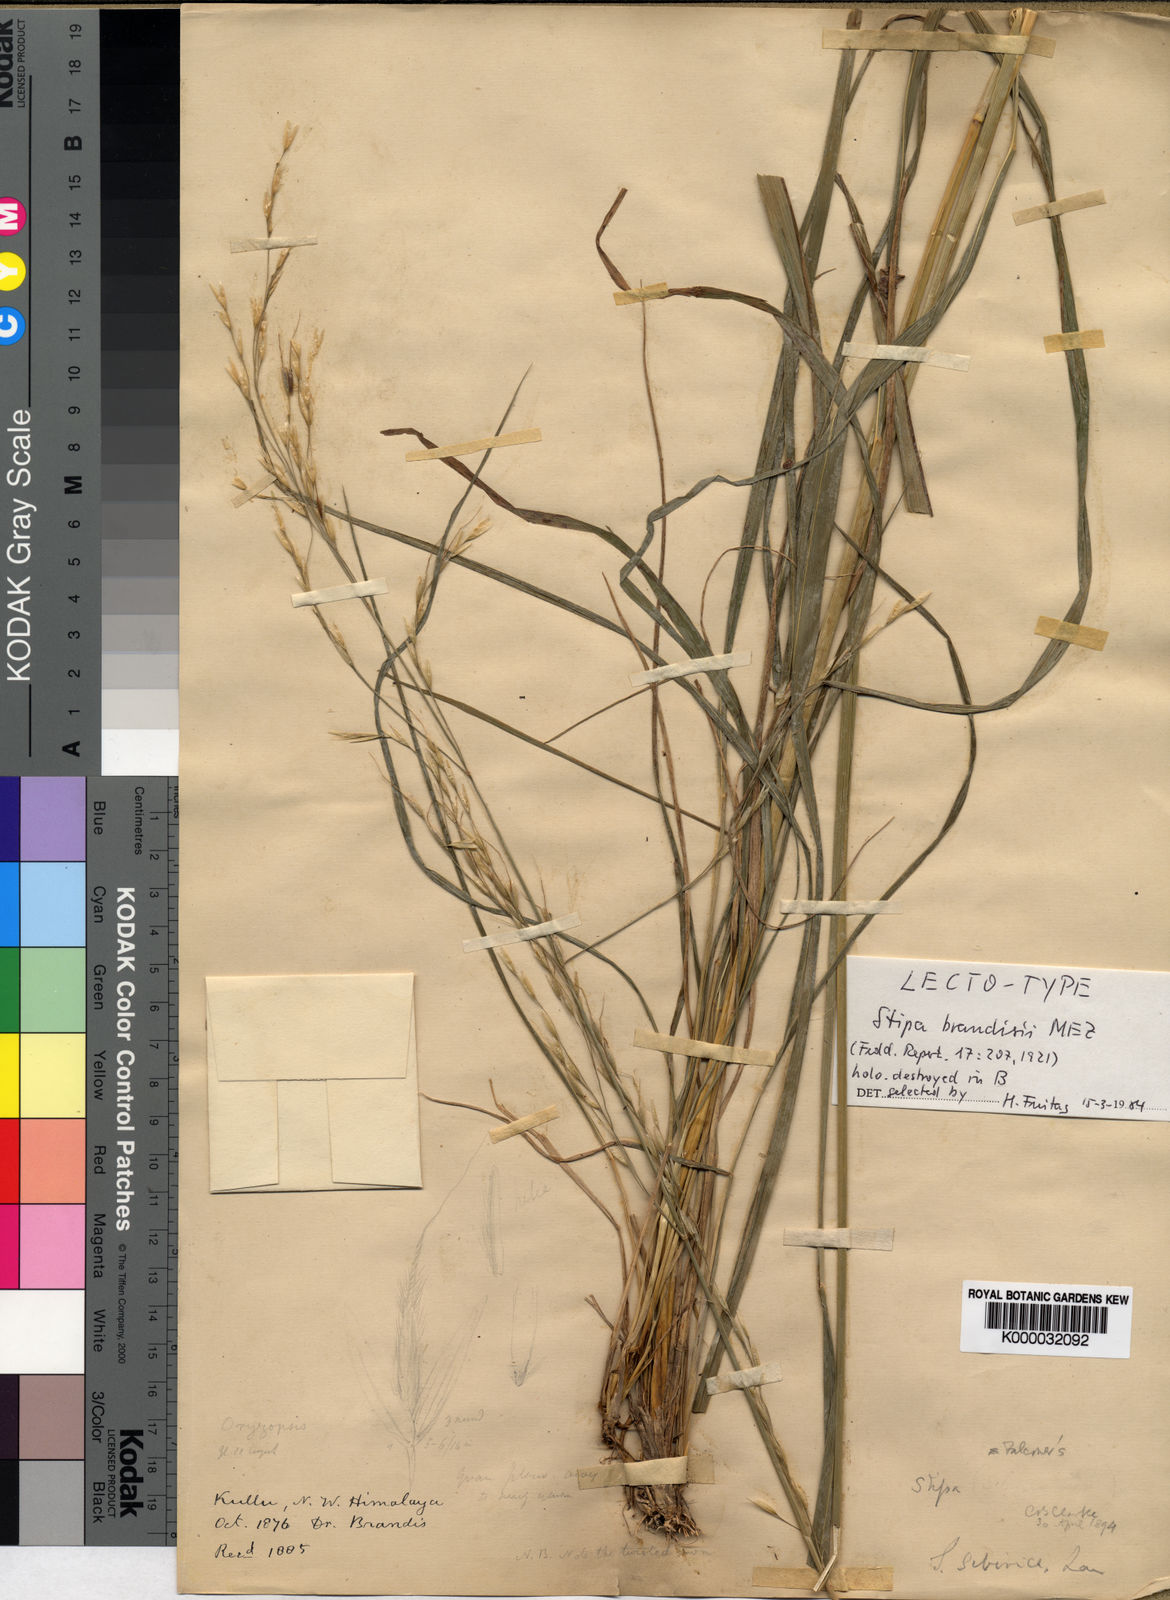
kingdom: Plantae
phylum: Tracheophyta
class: Liliopsida
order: Poales
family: Poaceae
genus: Achnatherum
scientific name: Achnatherum brandisii
